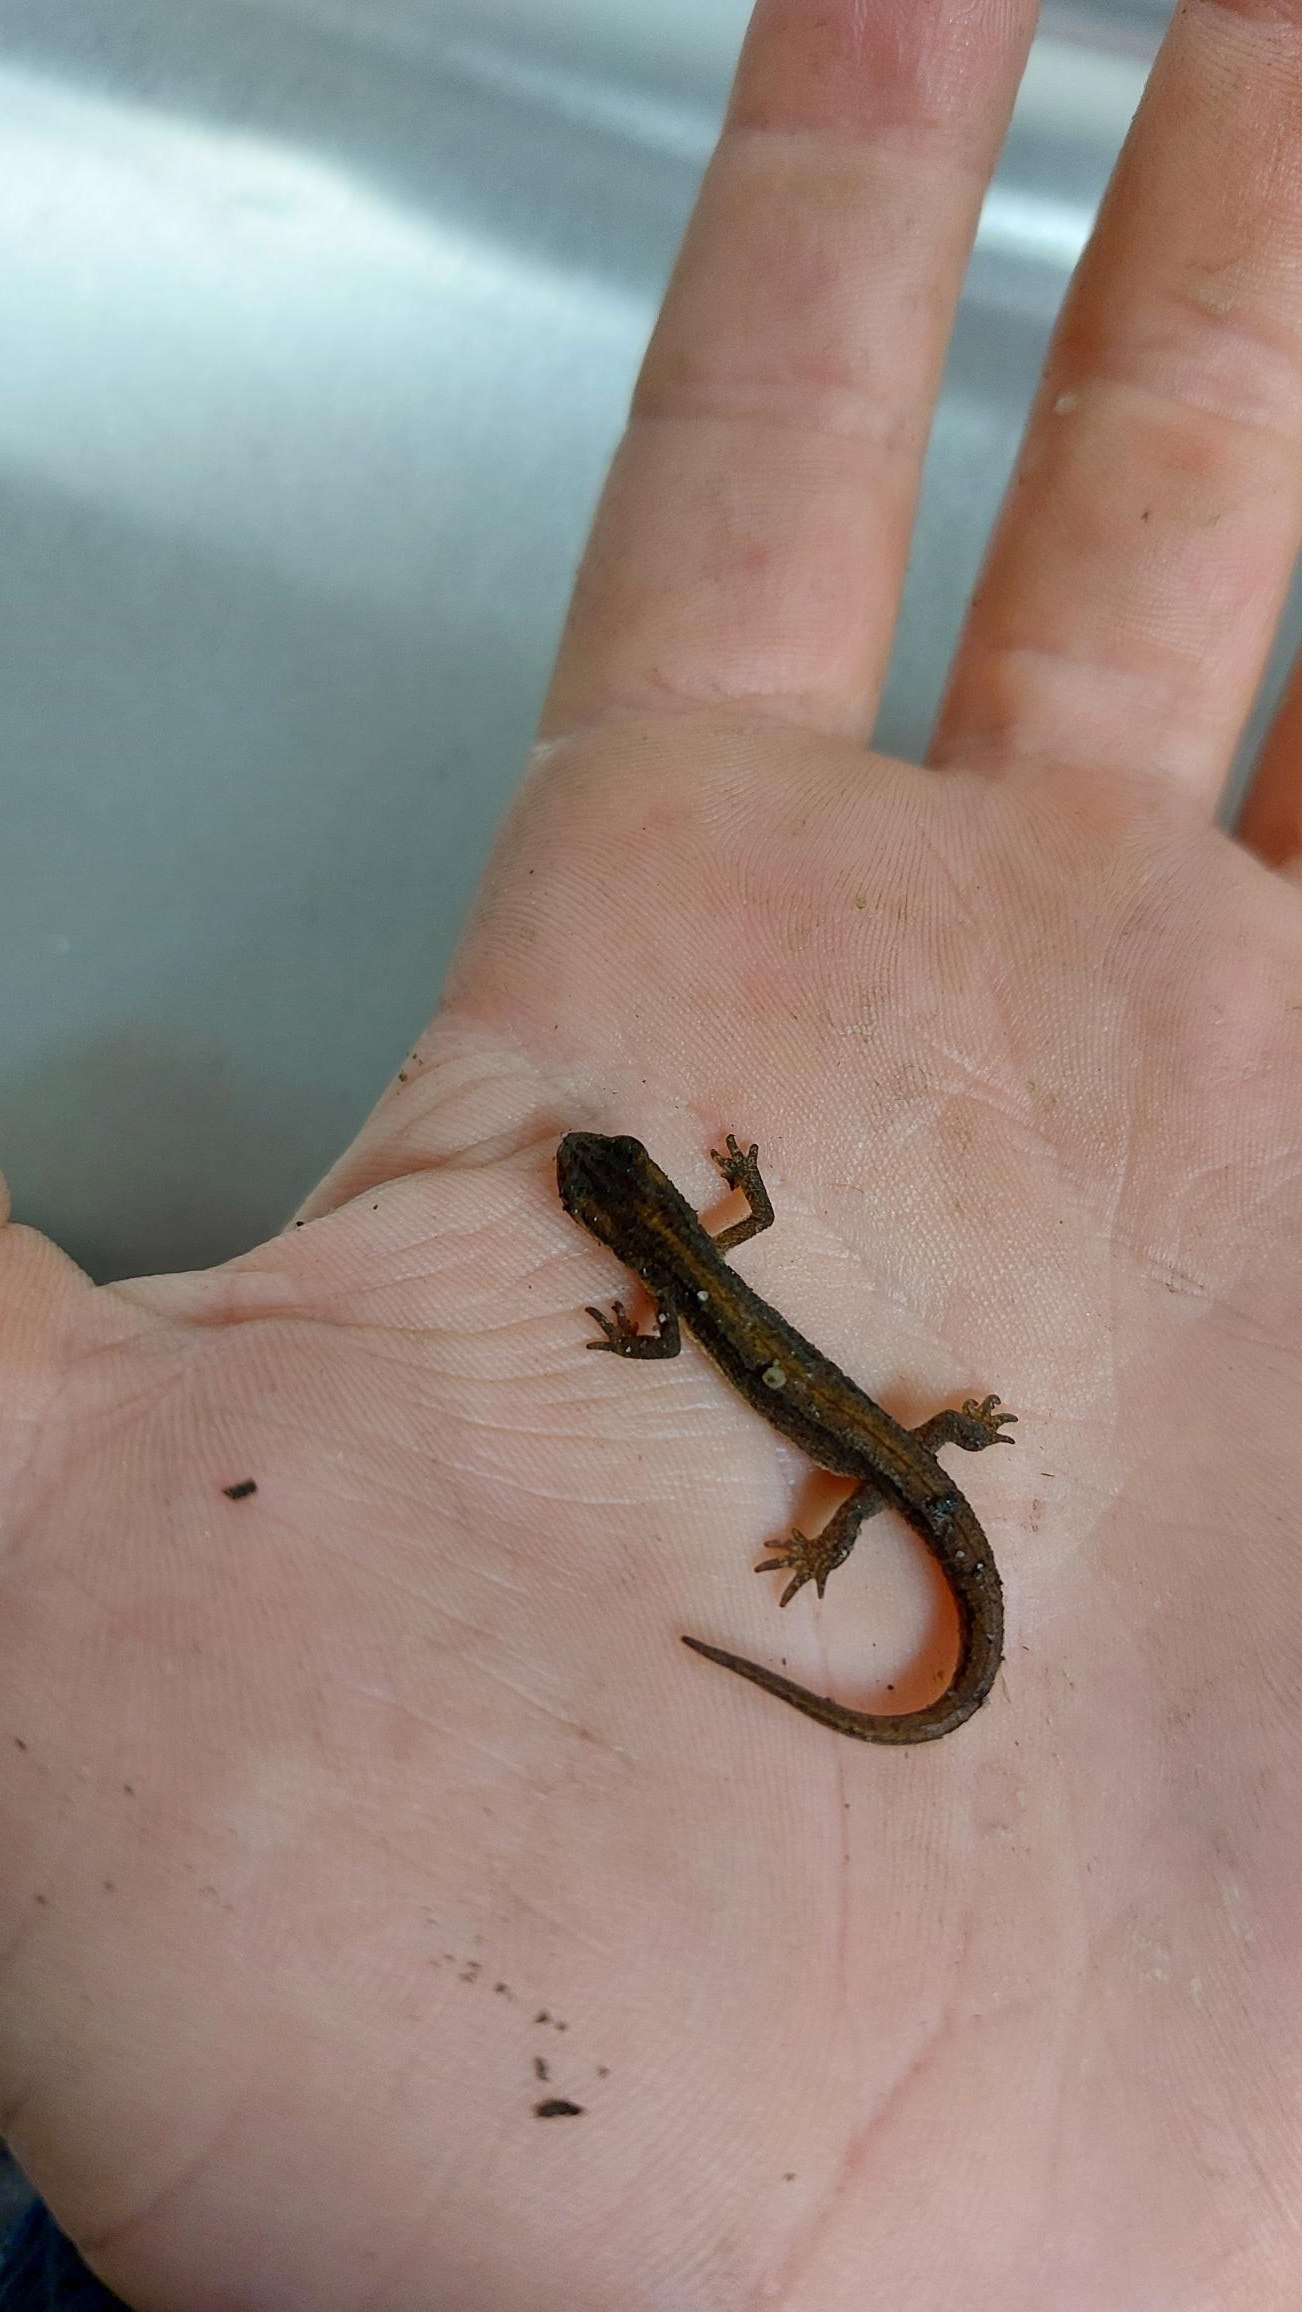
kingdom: Animalia
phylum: Chordata
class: Amphibia
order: Caudata
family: Salamandridae
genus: Lissotriton
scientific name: Lissotriton vulgaris
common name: Lille vandsalamander
